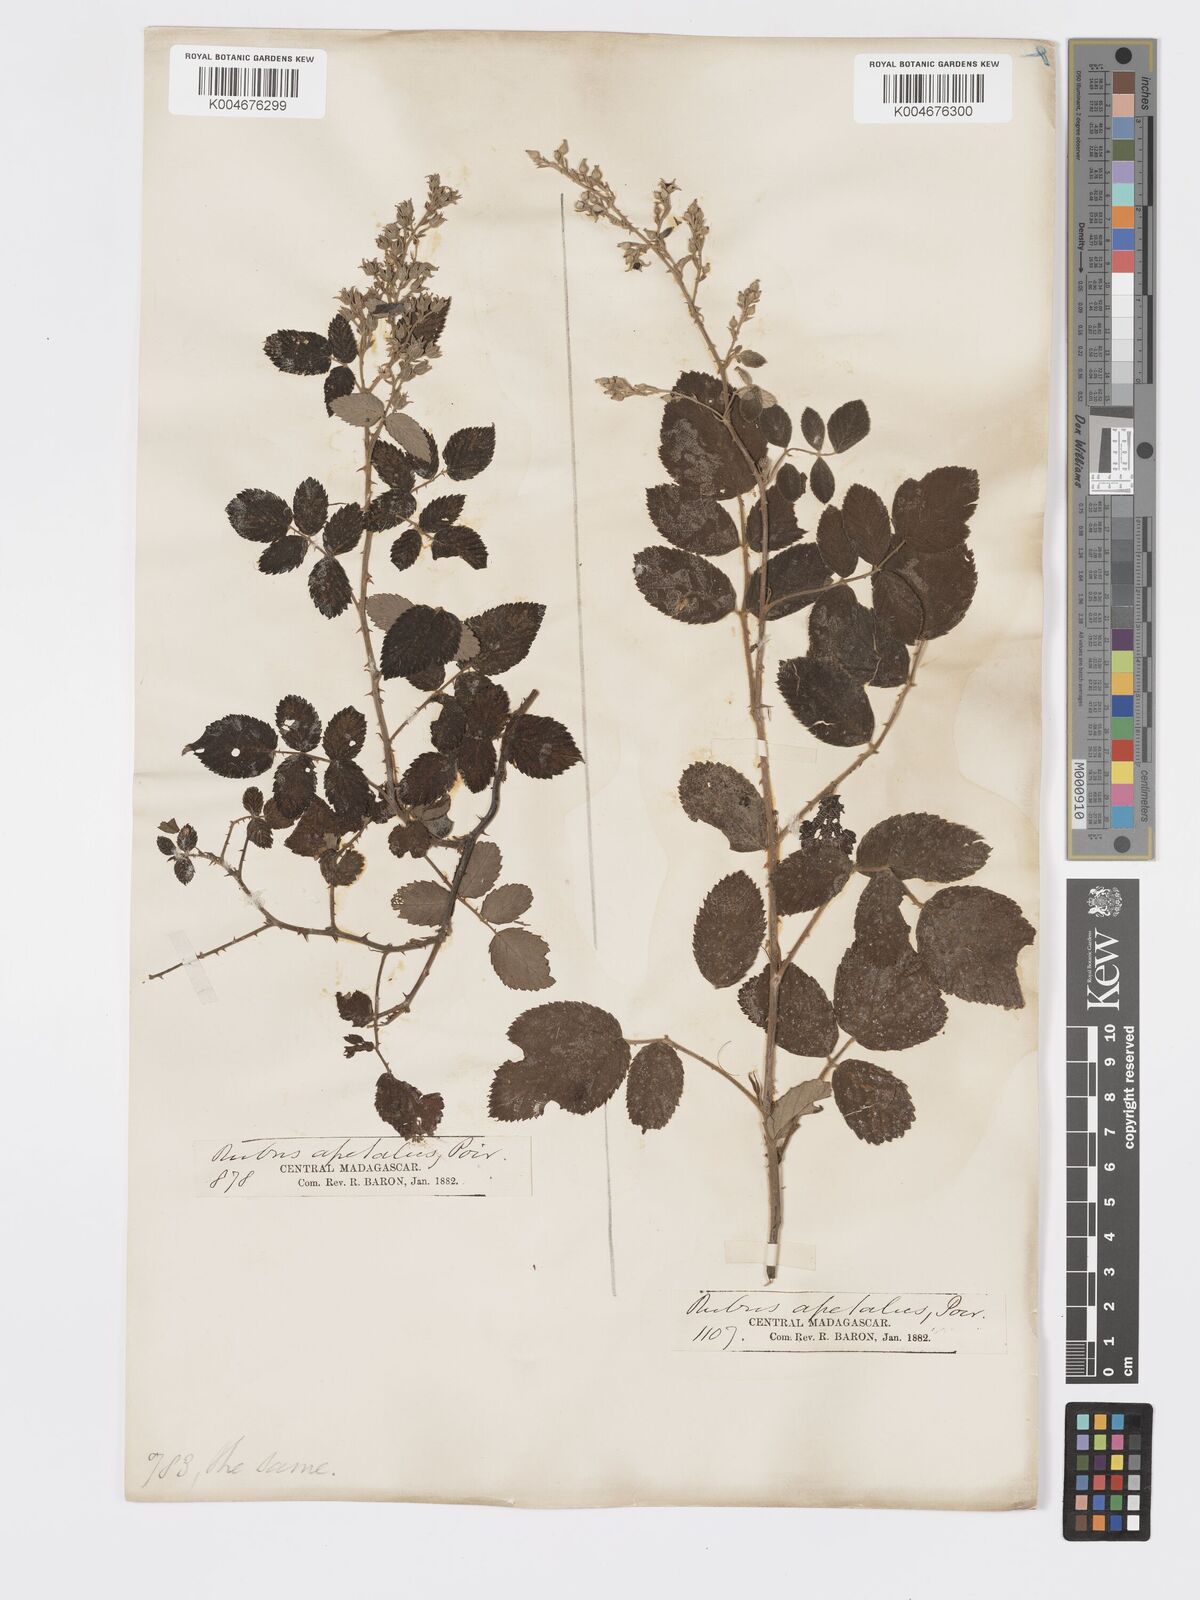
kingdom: Plantae
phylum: Tracheophyta
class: Magnoliopsida
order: Rosales
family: Rosaceae
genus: Rubus
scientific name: Rubus
